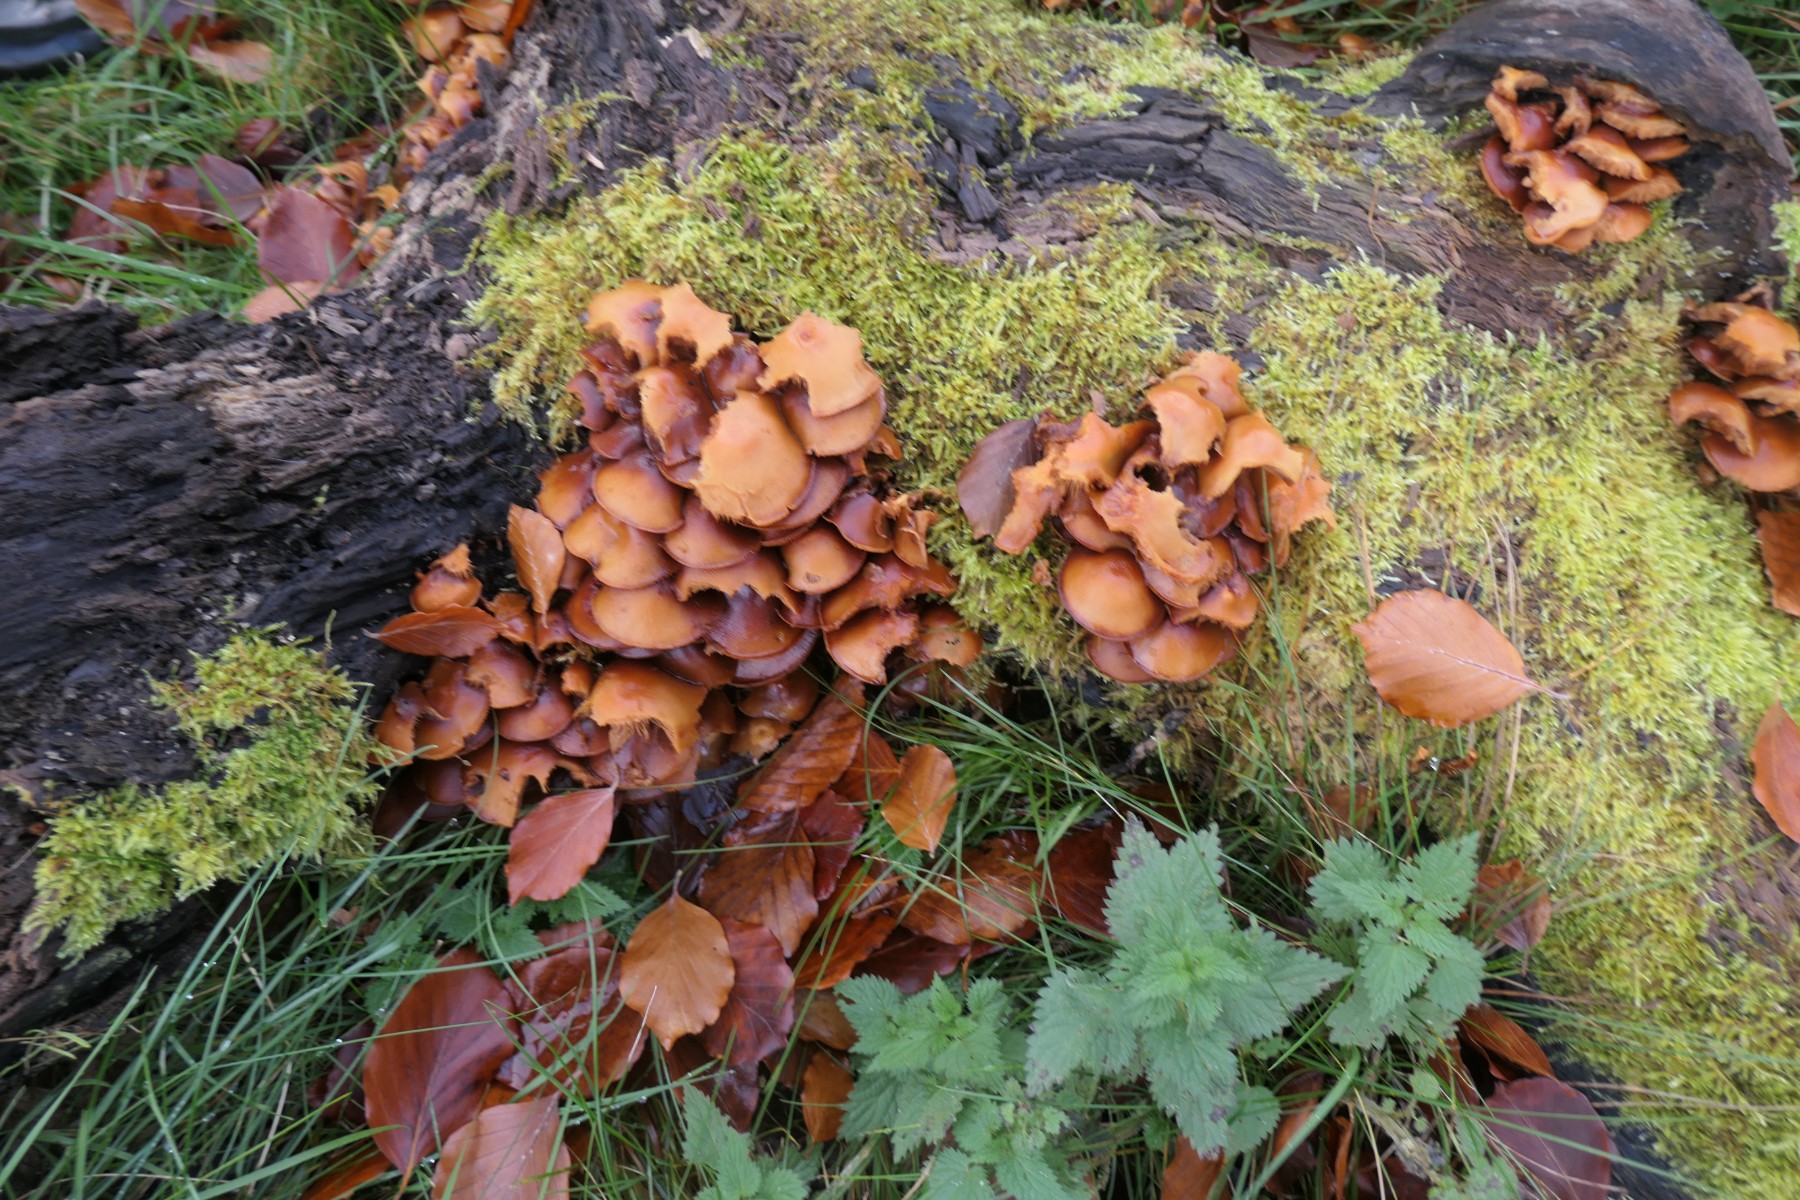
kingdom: Fungi
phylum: Basidiomycota
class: Agaricomycetes
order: Agaricales
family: Strophariaceae
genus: Kuehneromyces
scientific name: Kuehneromyces mutabilis
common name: foranderlig skælhat
